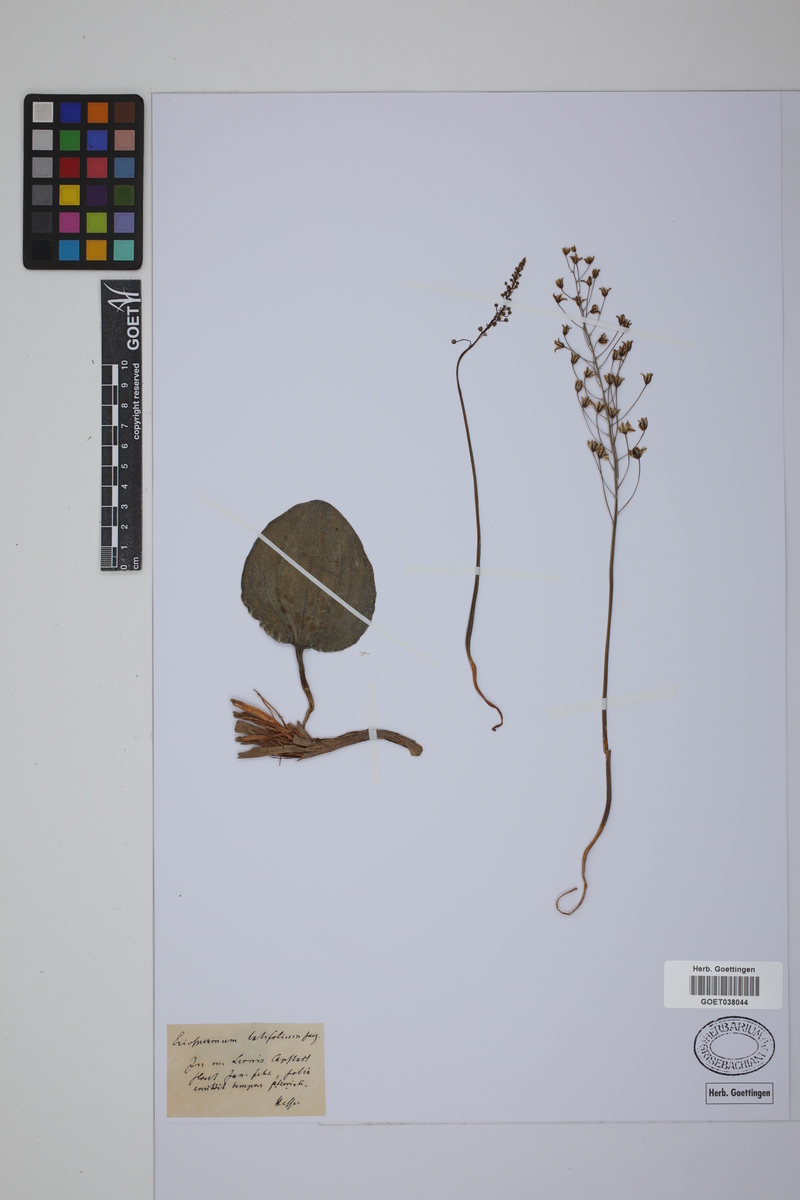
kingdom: Plantae
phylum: Tracheophyta
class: Liliopsida
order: Asparagales
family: Asparagaceae
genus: Eriospermum
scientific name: Eriospermum capense
